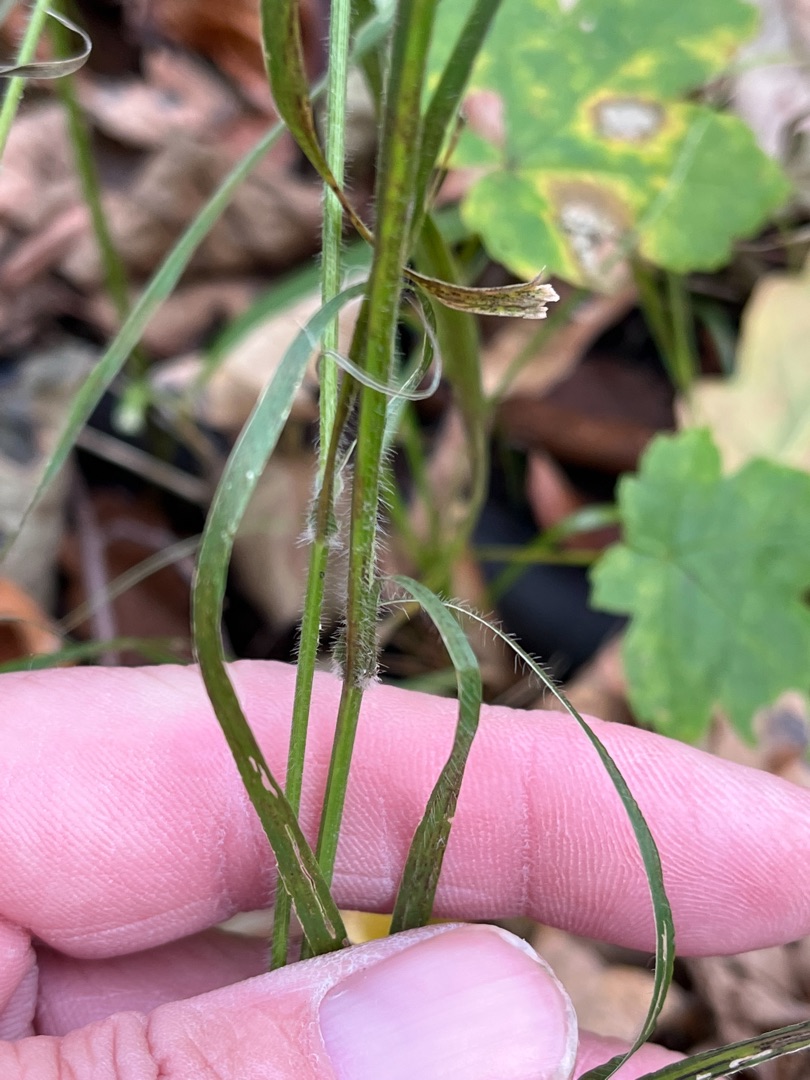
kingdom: Plantae
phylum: Tracheophyta
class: Liliopsida
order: Poales
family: Poaceae
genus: Brachypodium
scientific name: Brachypodium sylvaticum
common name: Skov-stilkaks
